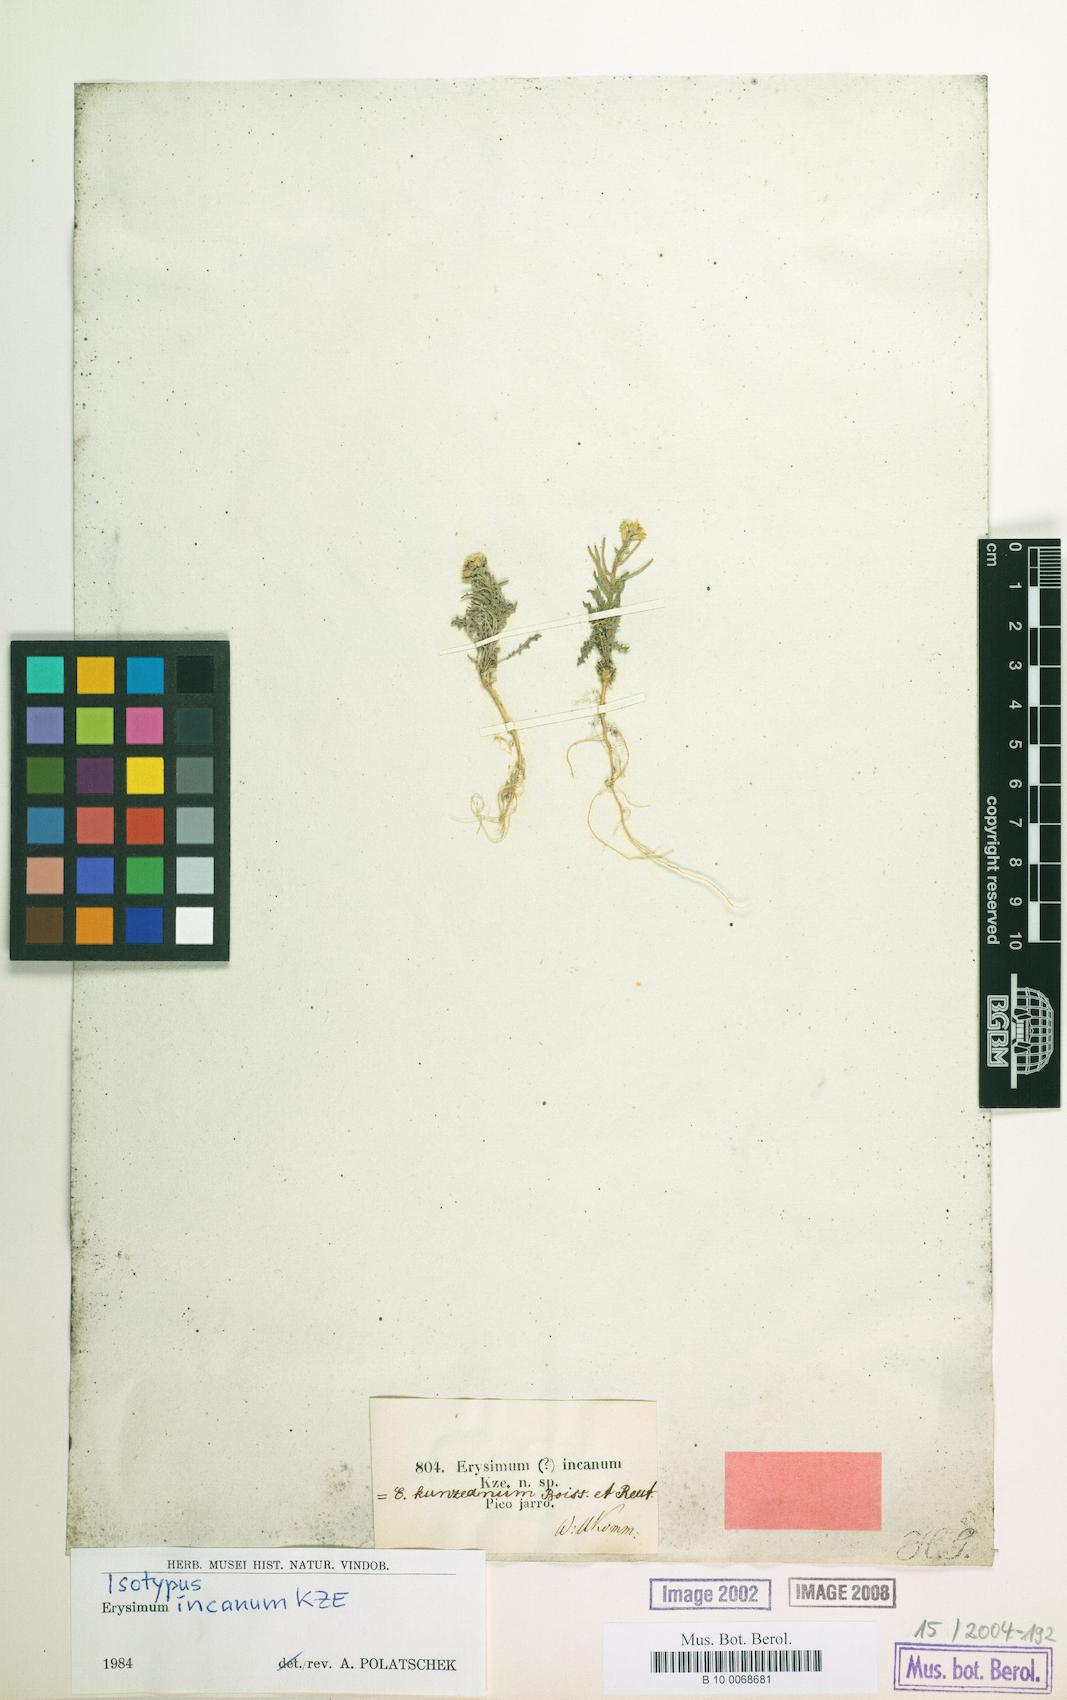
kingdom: Plantae
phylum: Tracheophyta
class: Magnoliopsida
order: Brassicales
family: Brassicaceae
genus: Erysimum
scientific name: Erysimum incanum
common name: Hoary treacle mustard
